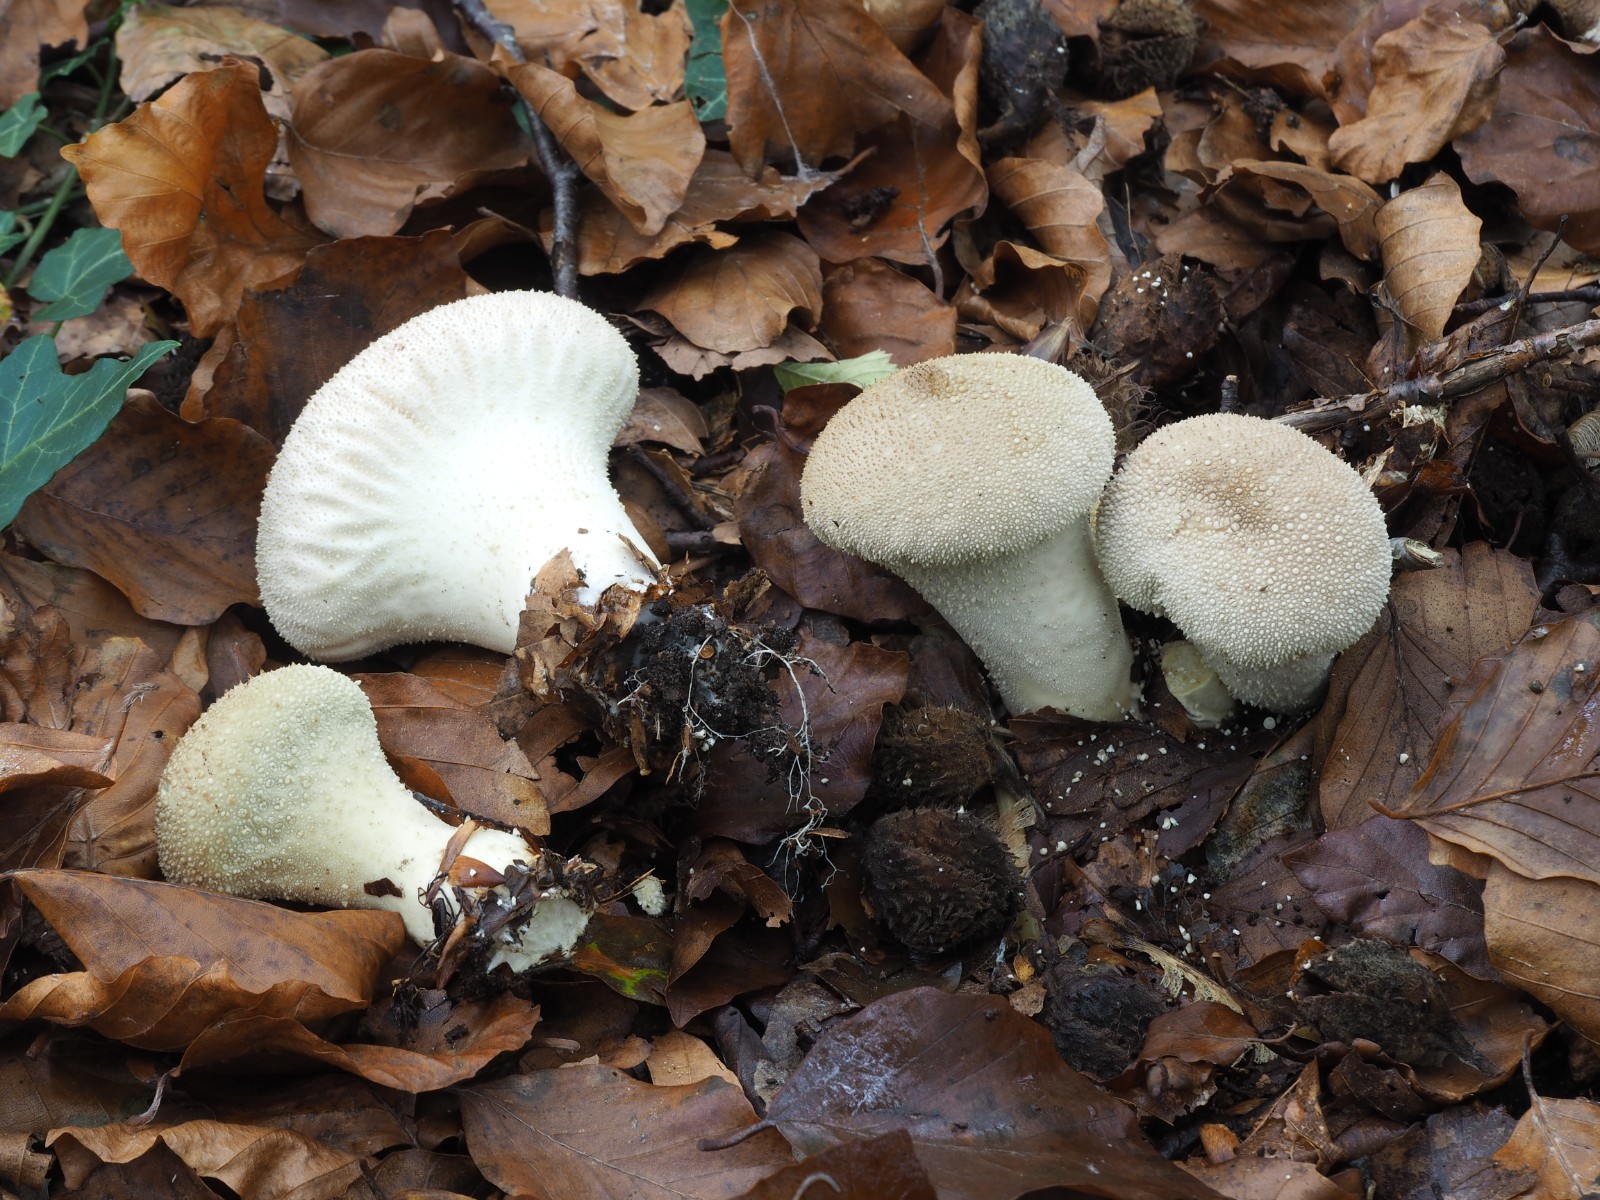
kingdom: Fungi
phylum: Basidiomycota
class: Agaricomycetes
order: Agaricales
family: Lycoperdaceae
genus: Lycoperdon
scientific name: Lycoperdon perlatum
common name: krystal-støvbold
